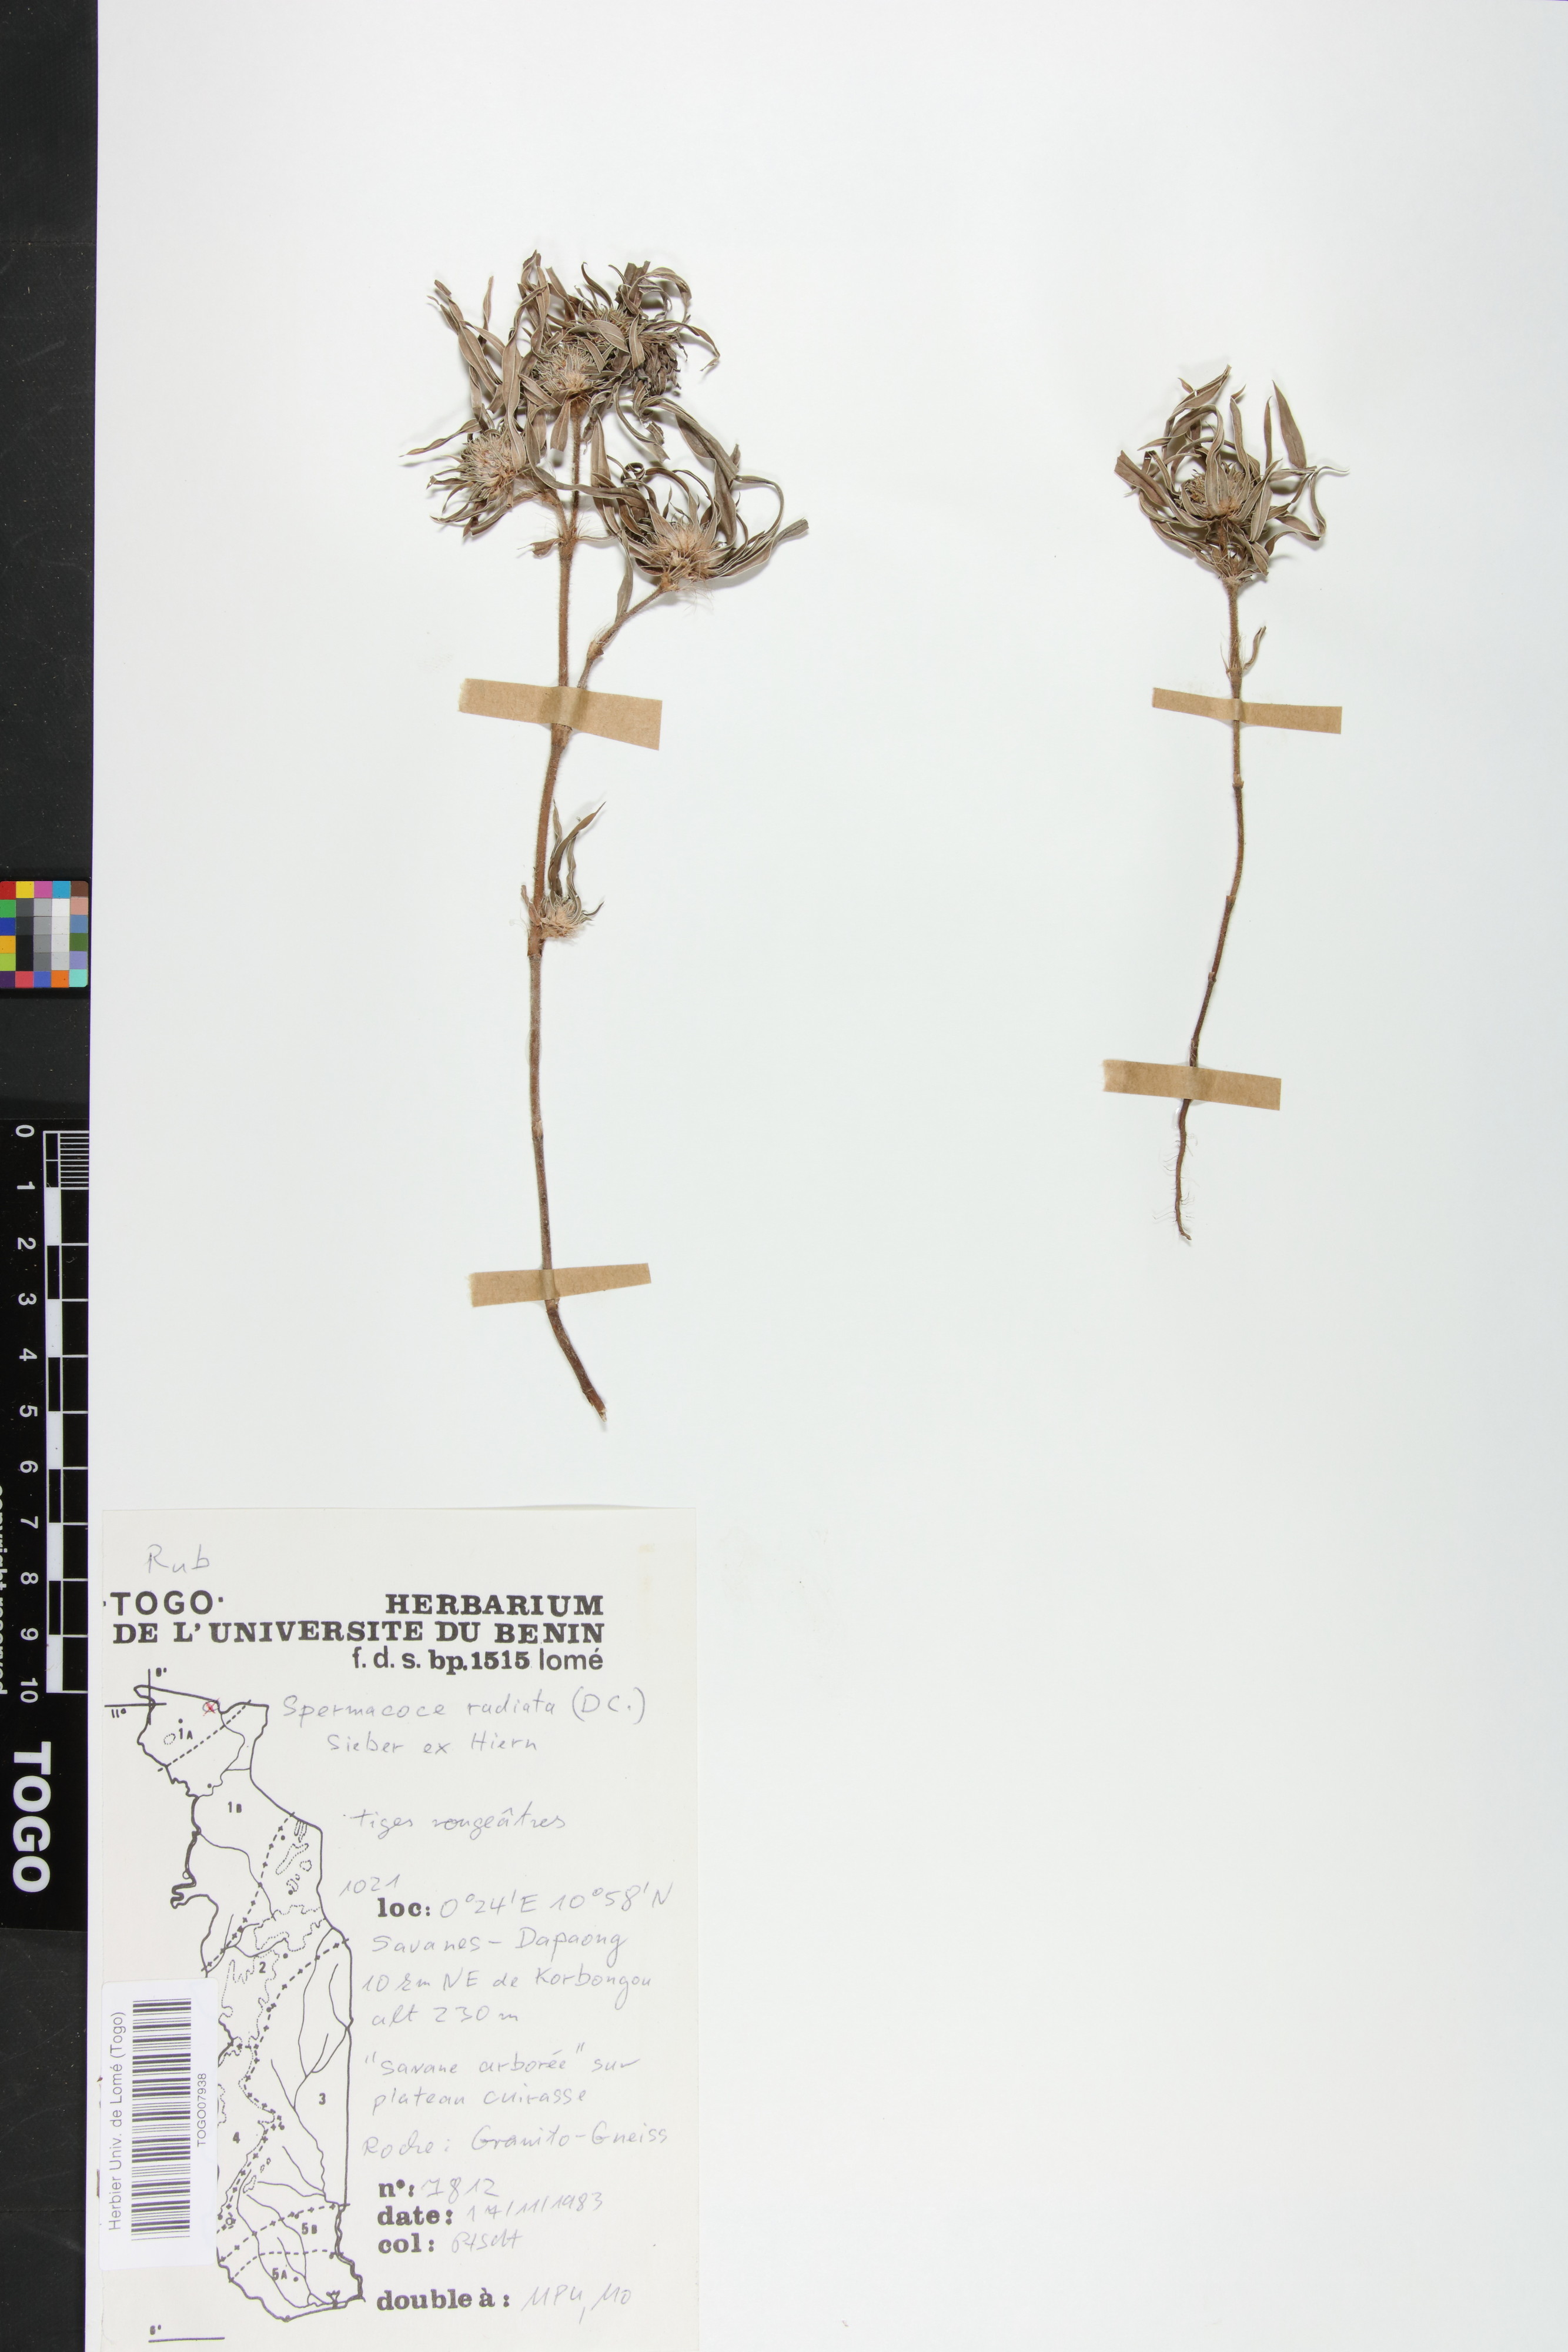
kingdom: Plantae
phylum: Tracheophyta
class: Magnoliopsida
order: Gentianales
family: Rubiaceae
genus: Spermacoce
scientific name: Spermacoce radiata
